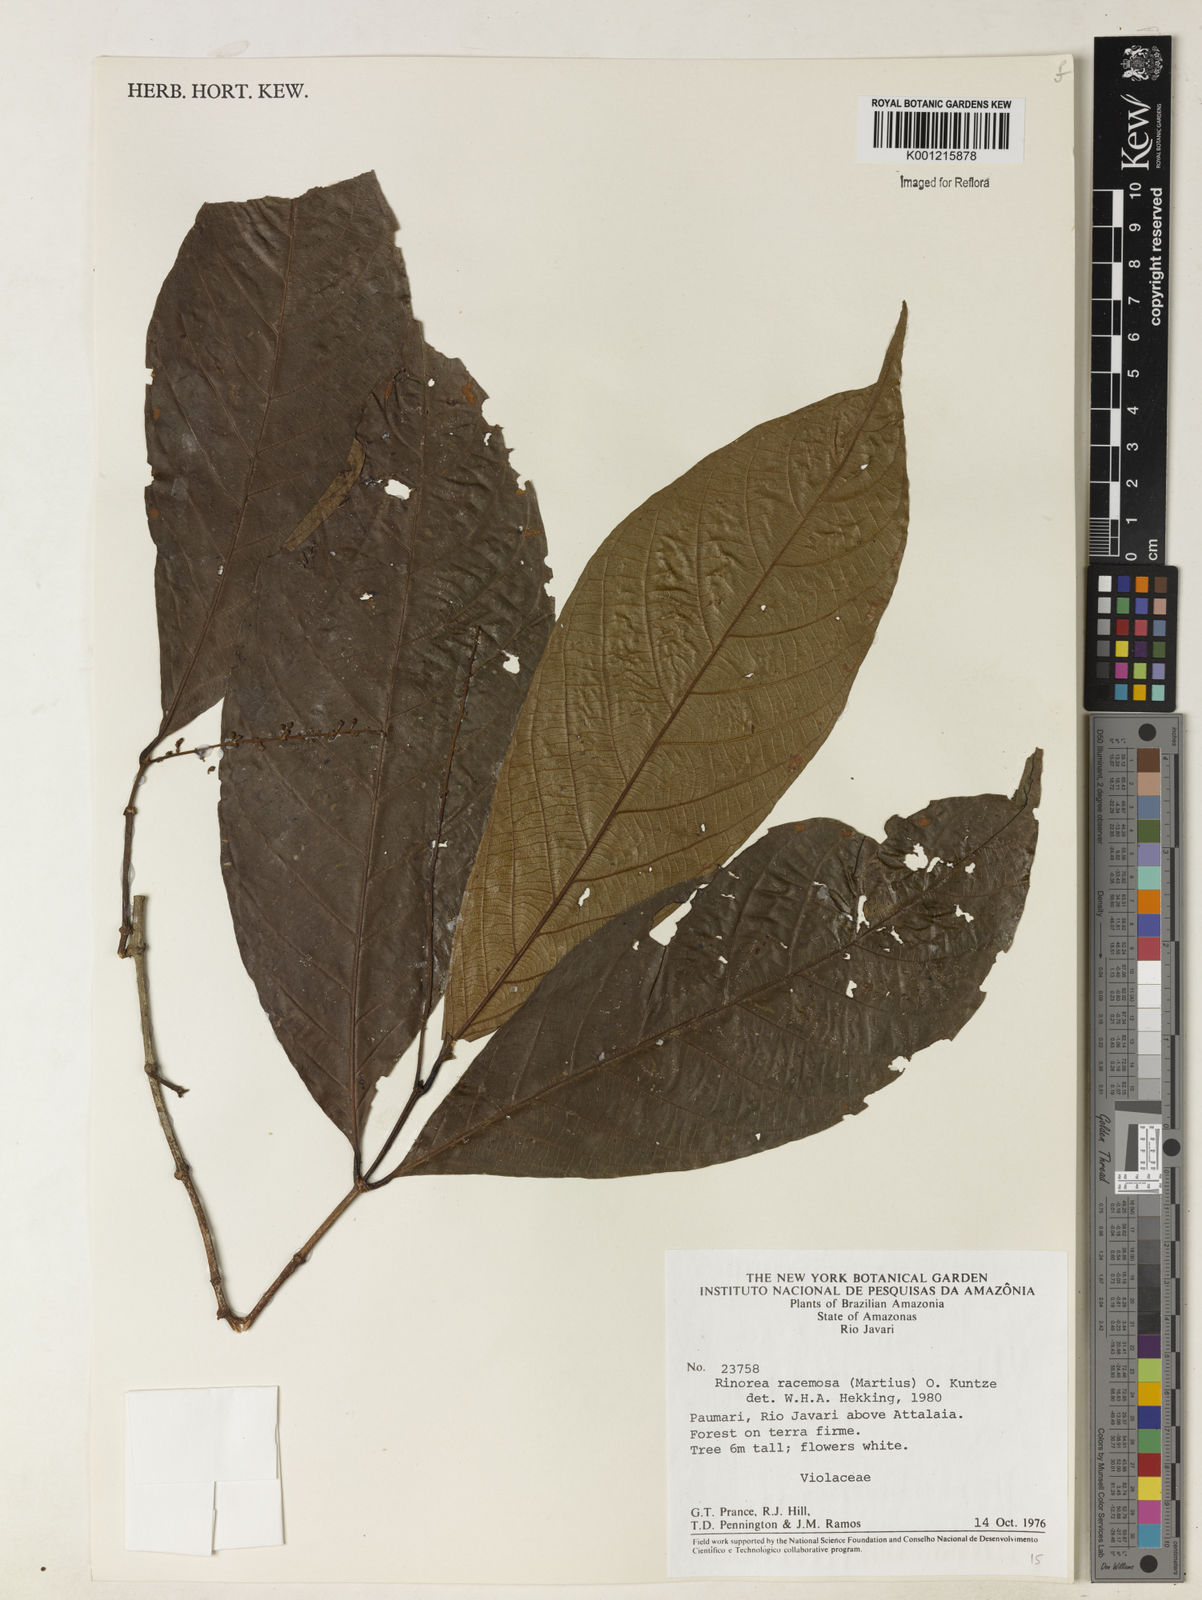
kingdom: Plantae
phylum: Tracheophyta
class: Magnoliopsida
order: Malpighiales
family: Violaceae
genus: Rinorea
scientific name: Rinorea racemosa
